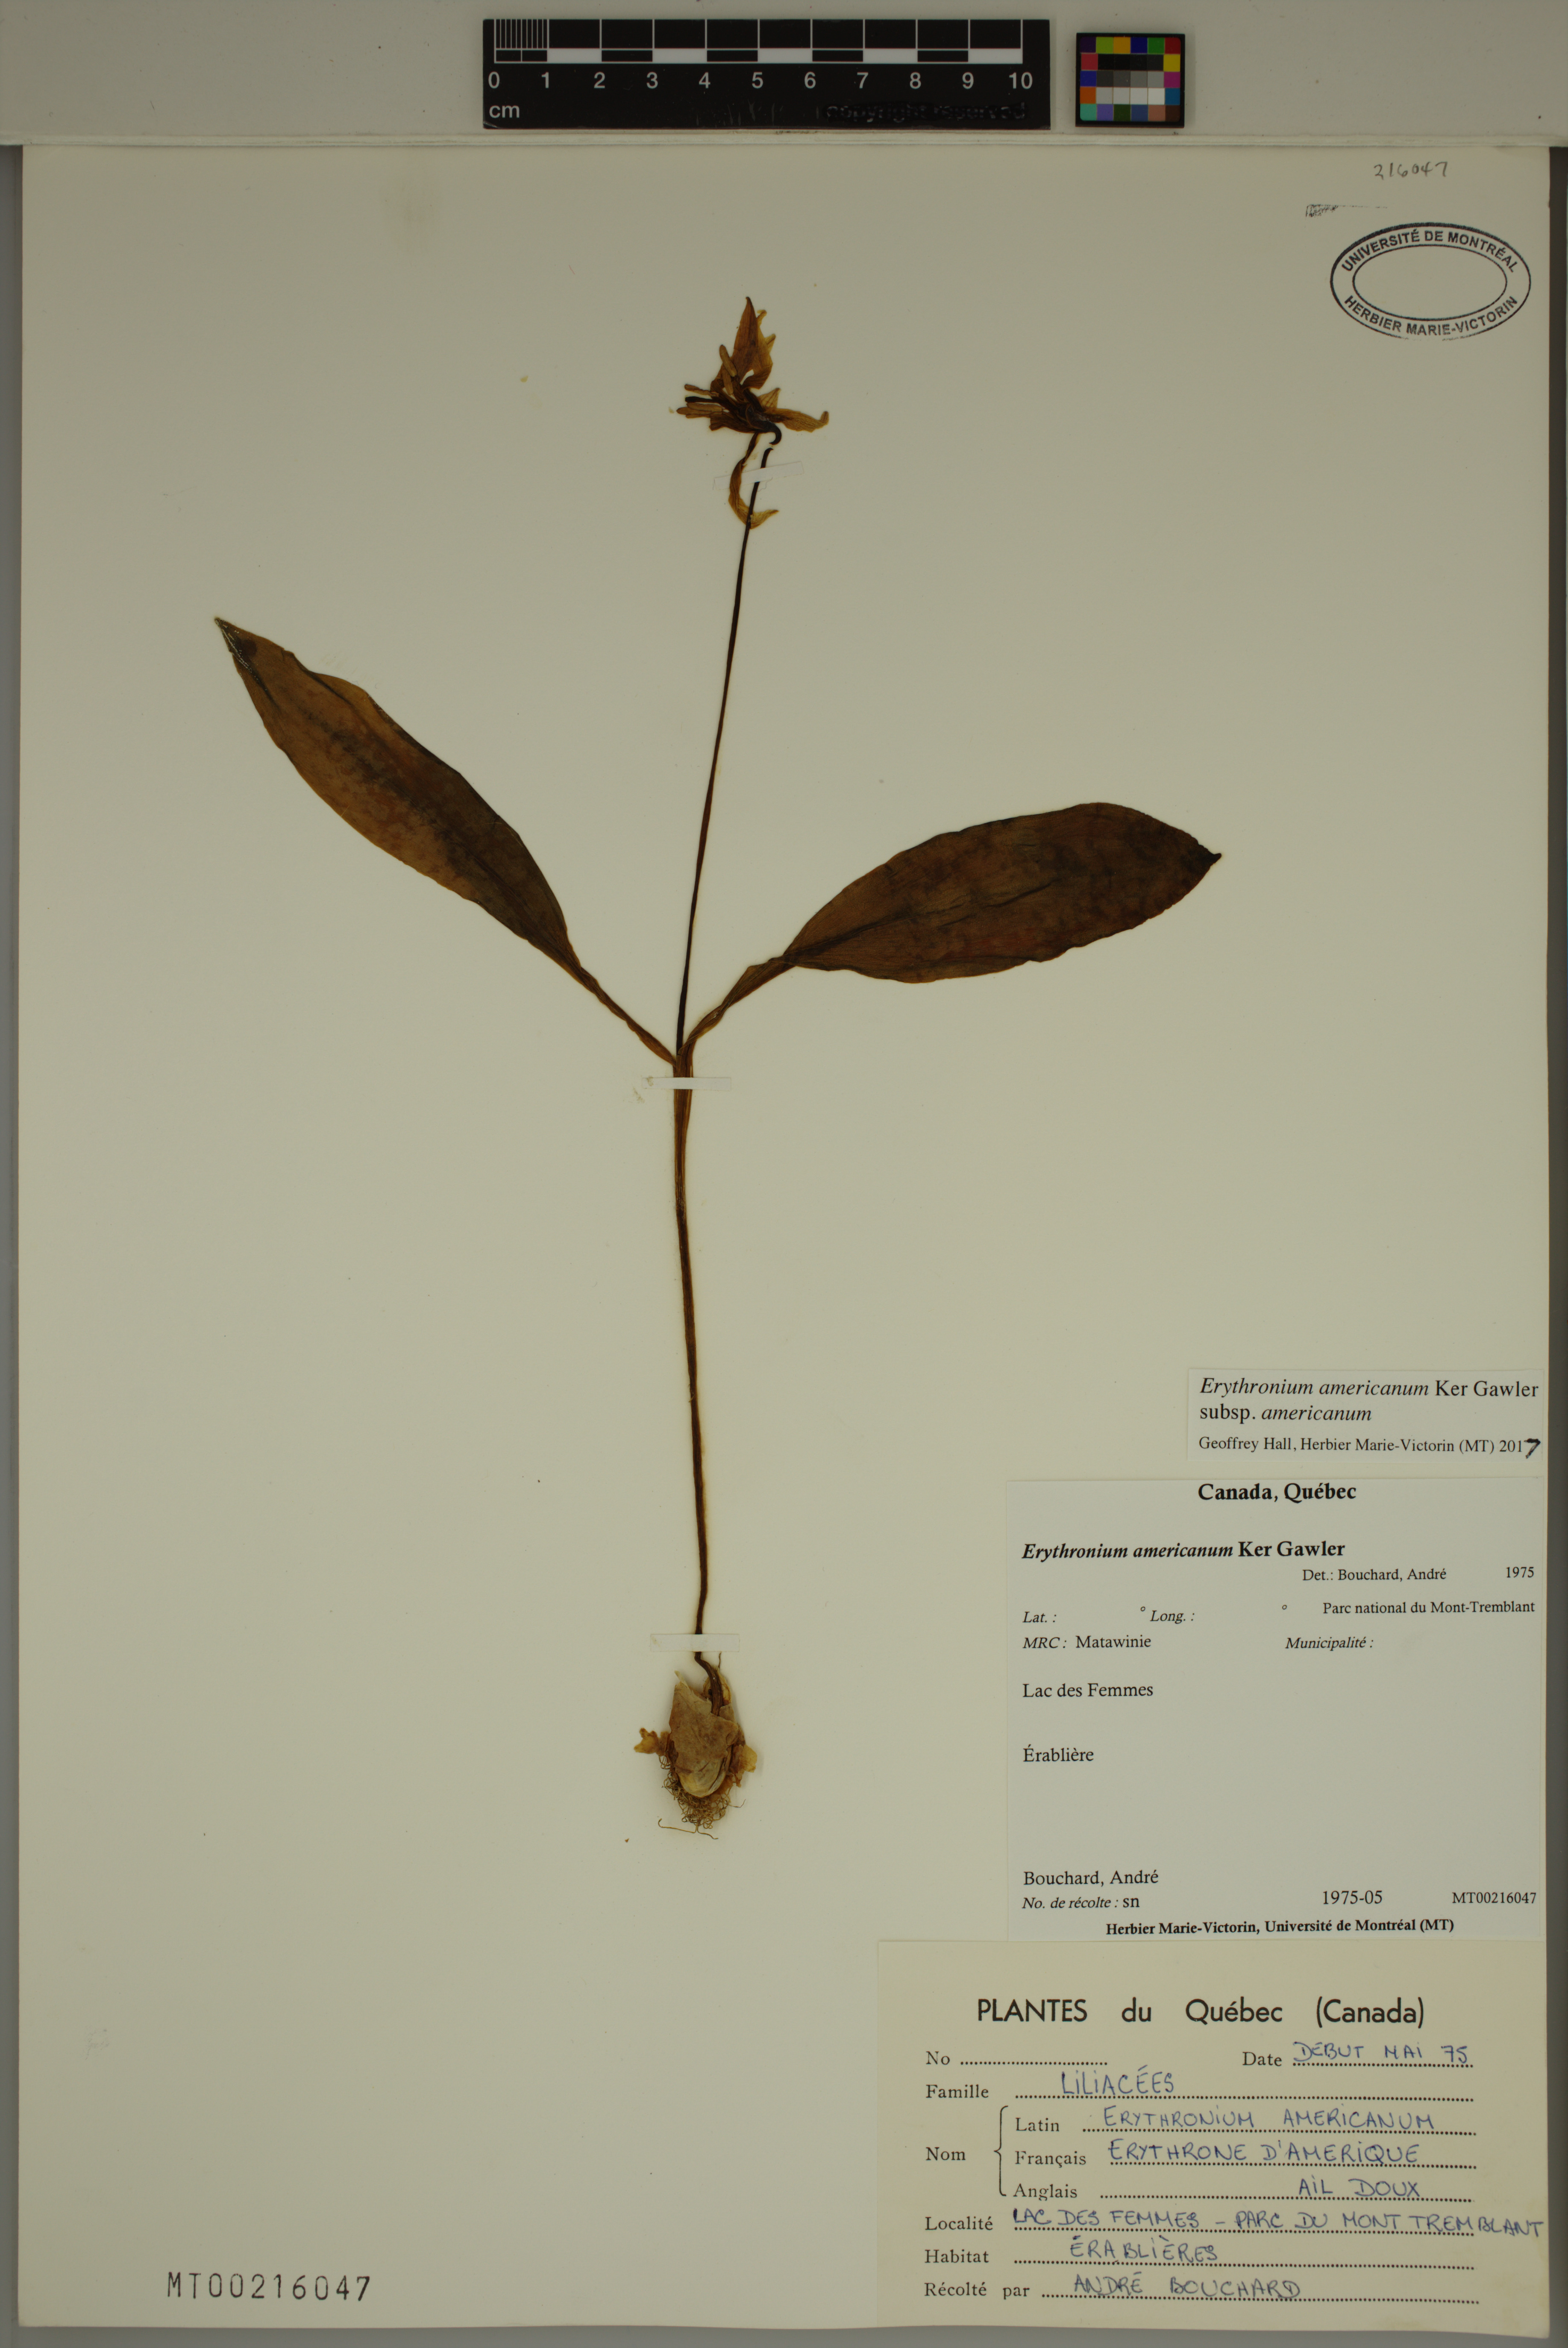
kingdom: Plantae
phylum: Tracheophyta
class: Liliopsida
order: Liliales
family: Liliaceae
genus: Erythronium
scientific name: Erythronium americanum
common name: Yellow adder's-tongue
